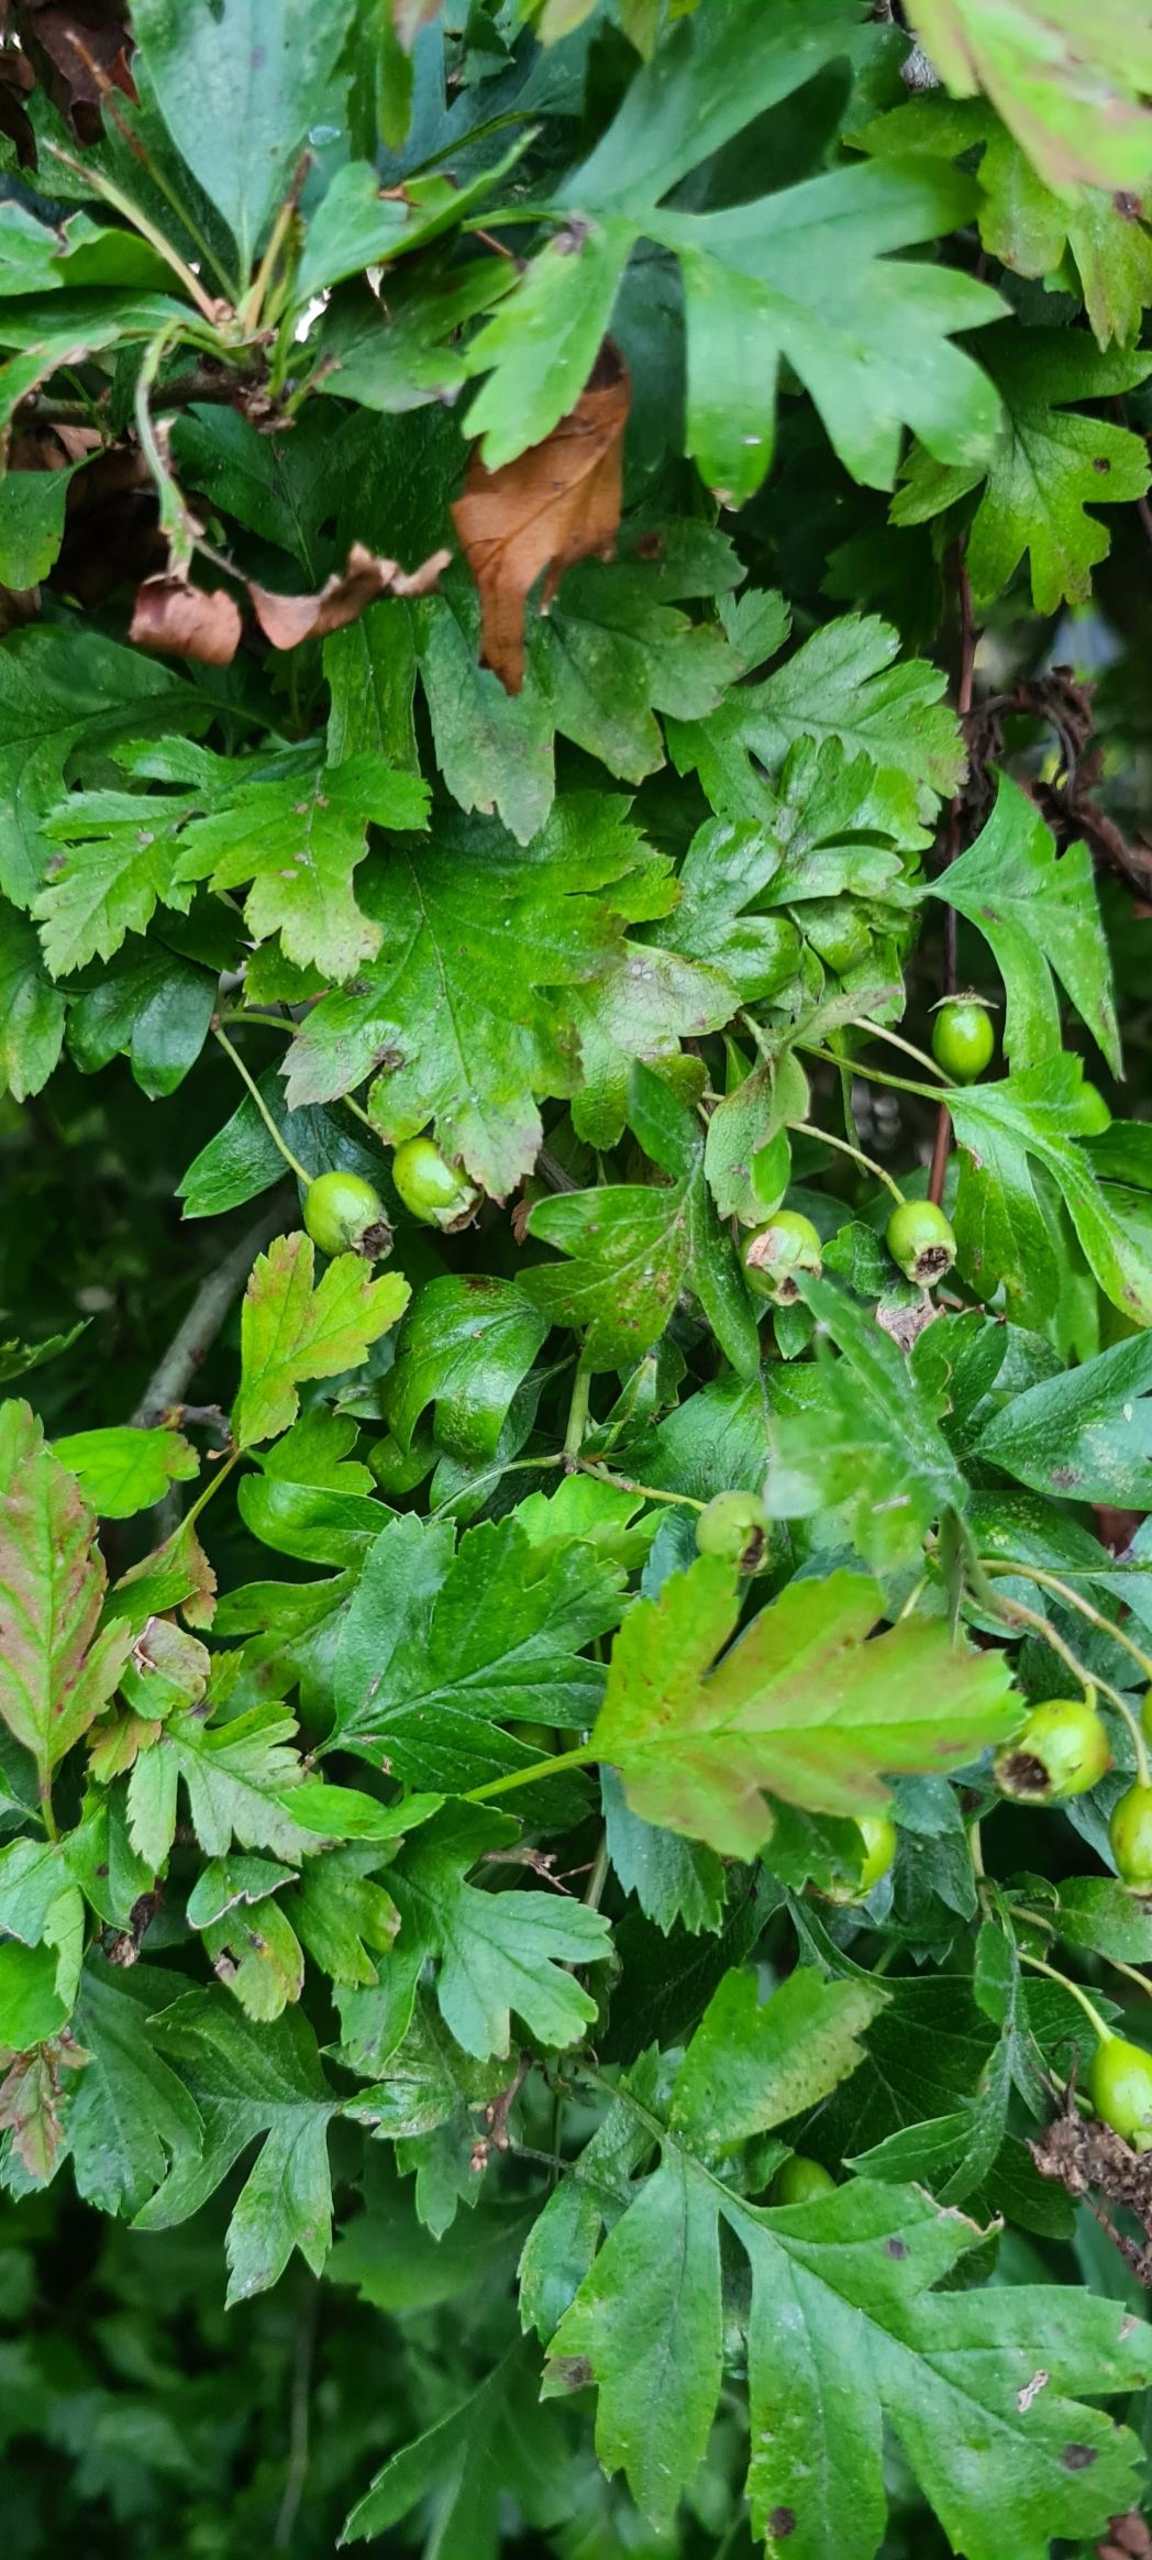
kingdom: Plantae
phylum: Tracheophyta
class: Magnoliopsida
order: Rosales
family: Rosaceae
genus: Crataegus
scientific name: Crataegus monogyna
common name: Engriflet hvidtjørn
